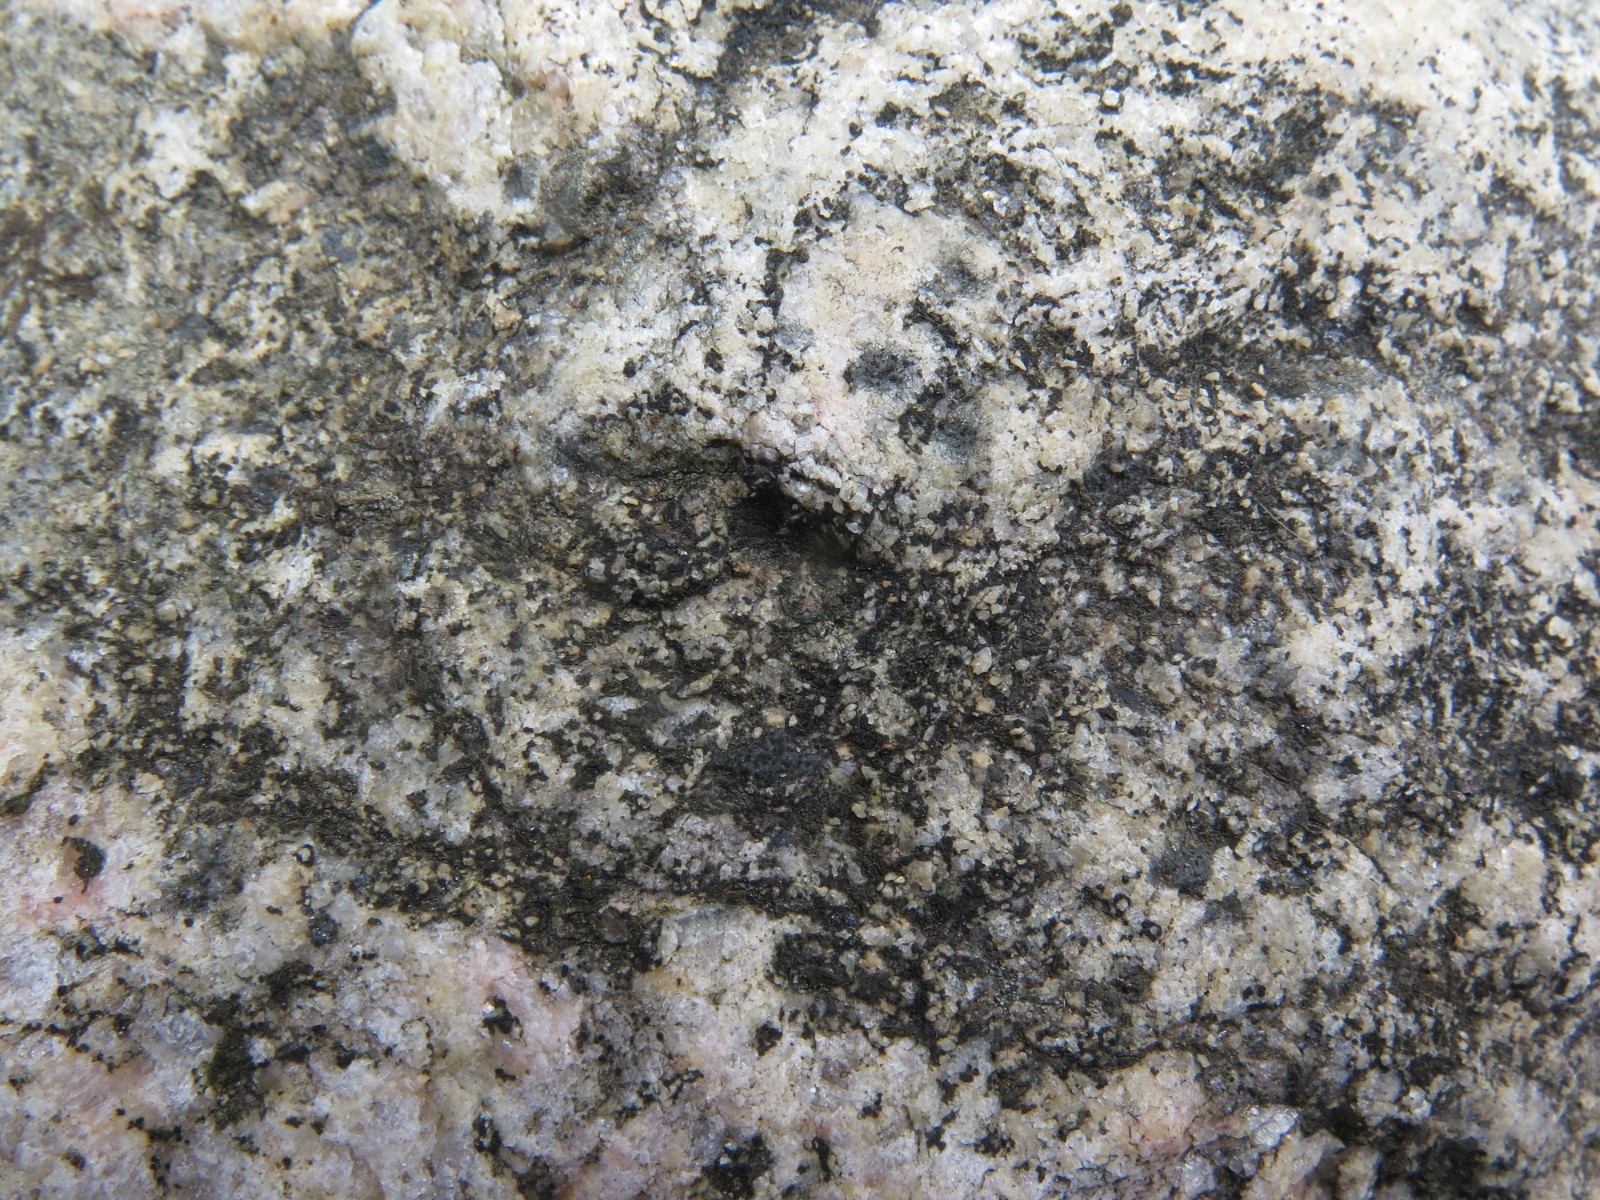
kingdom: Fungi
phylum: Ascomycota
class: Lecanoromycetes
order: Acarosporales
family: Acarosporaceae
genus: Acarospora
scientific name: Acarospora privigna
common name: sort foldekantlav
